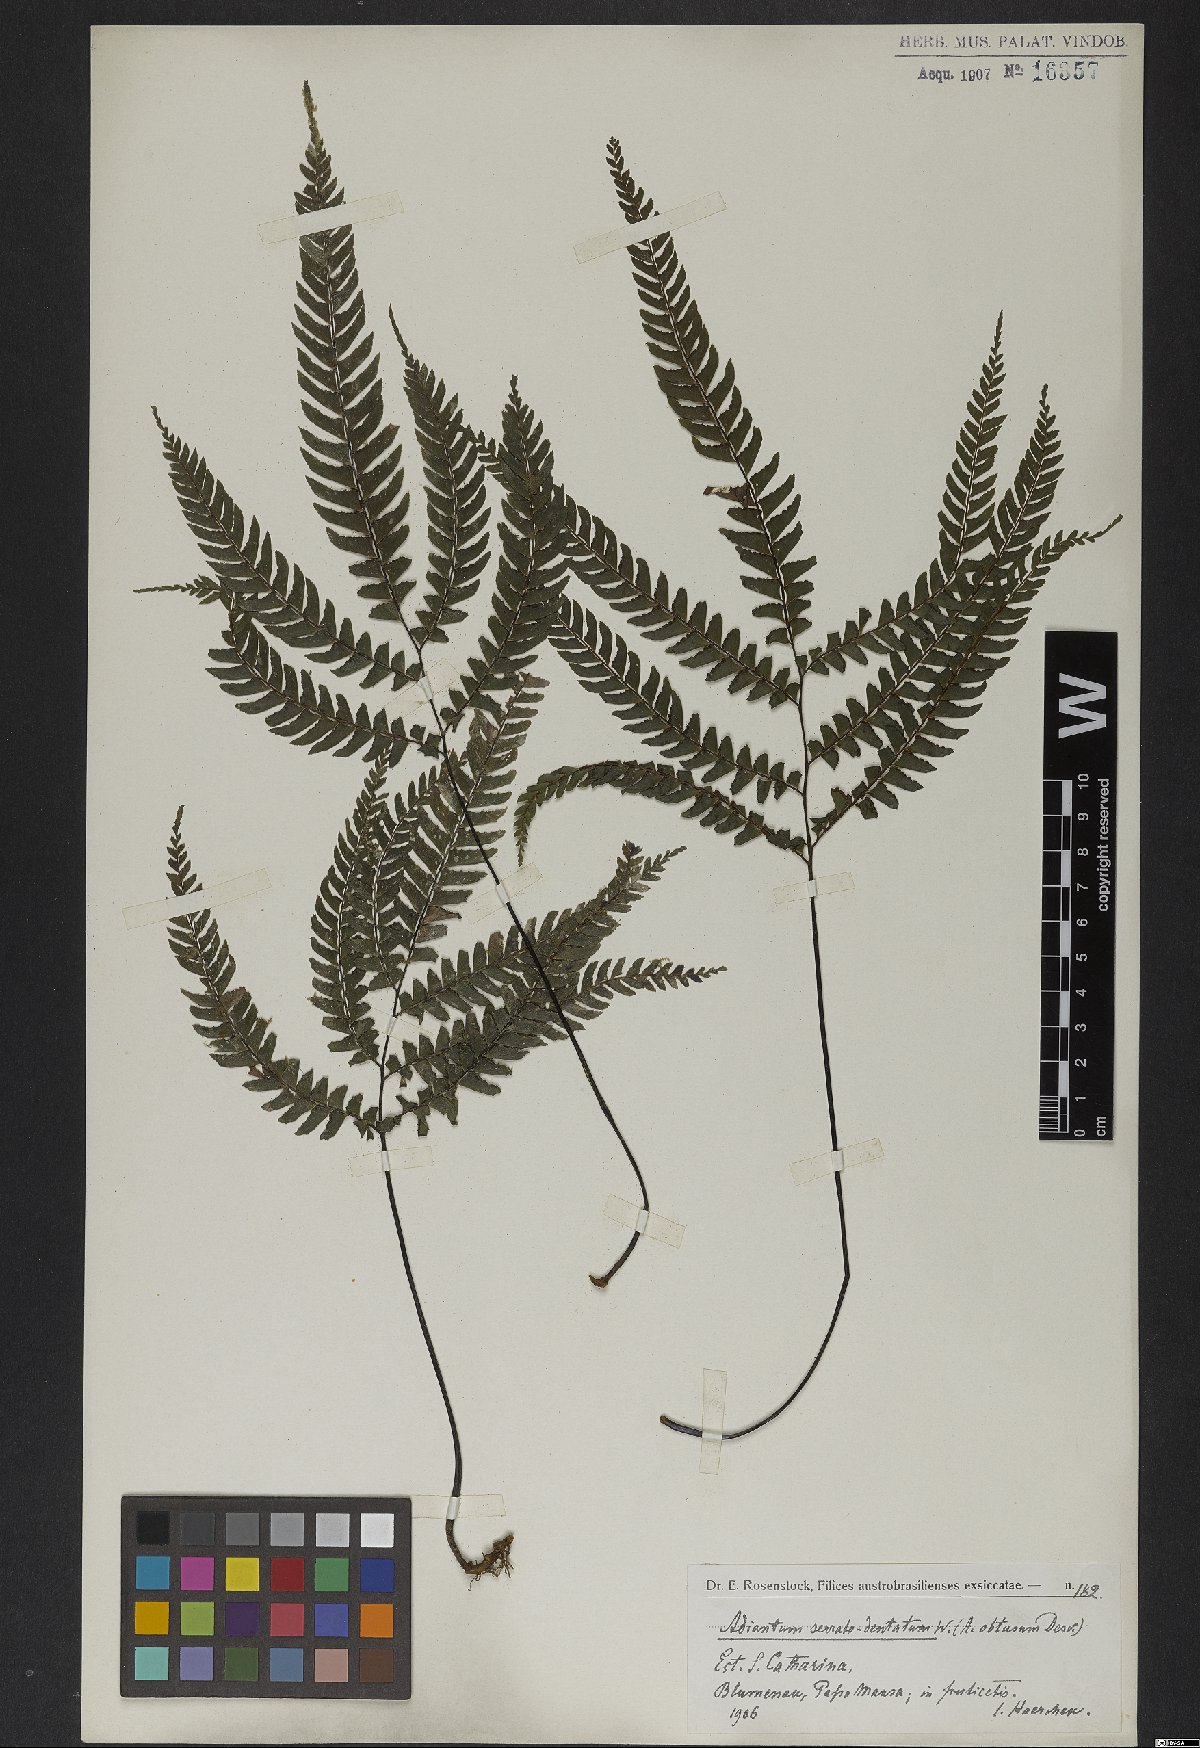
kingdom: Plantae
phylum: Tracheophyta
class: Polypodiopsida
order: Polypodiales
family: Pteridaceae
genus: Adiantum
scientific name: Adiantum serratodentatum
